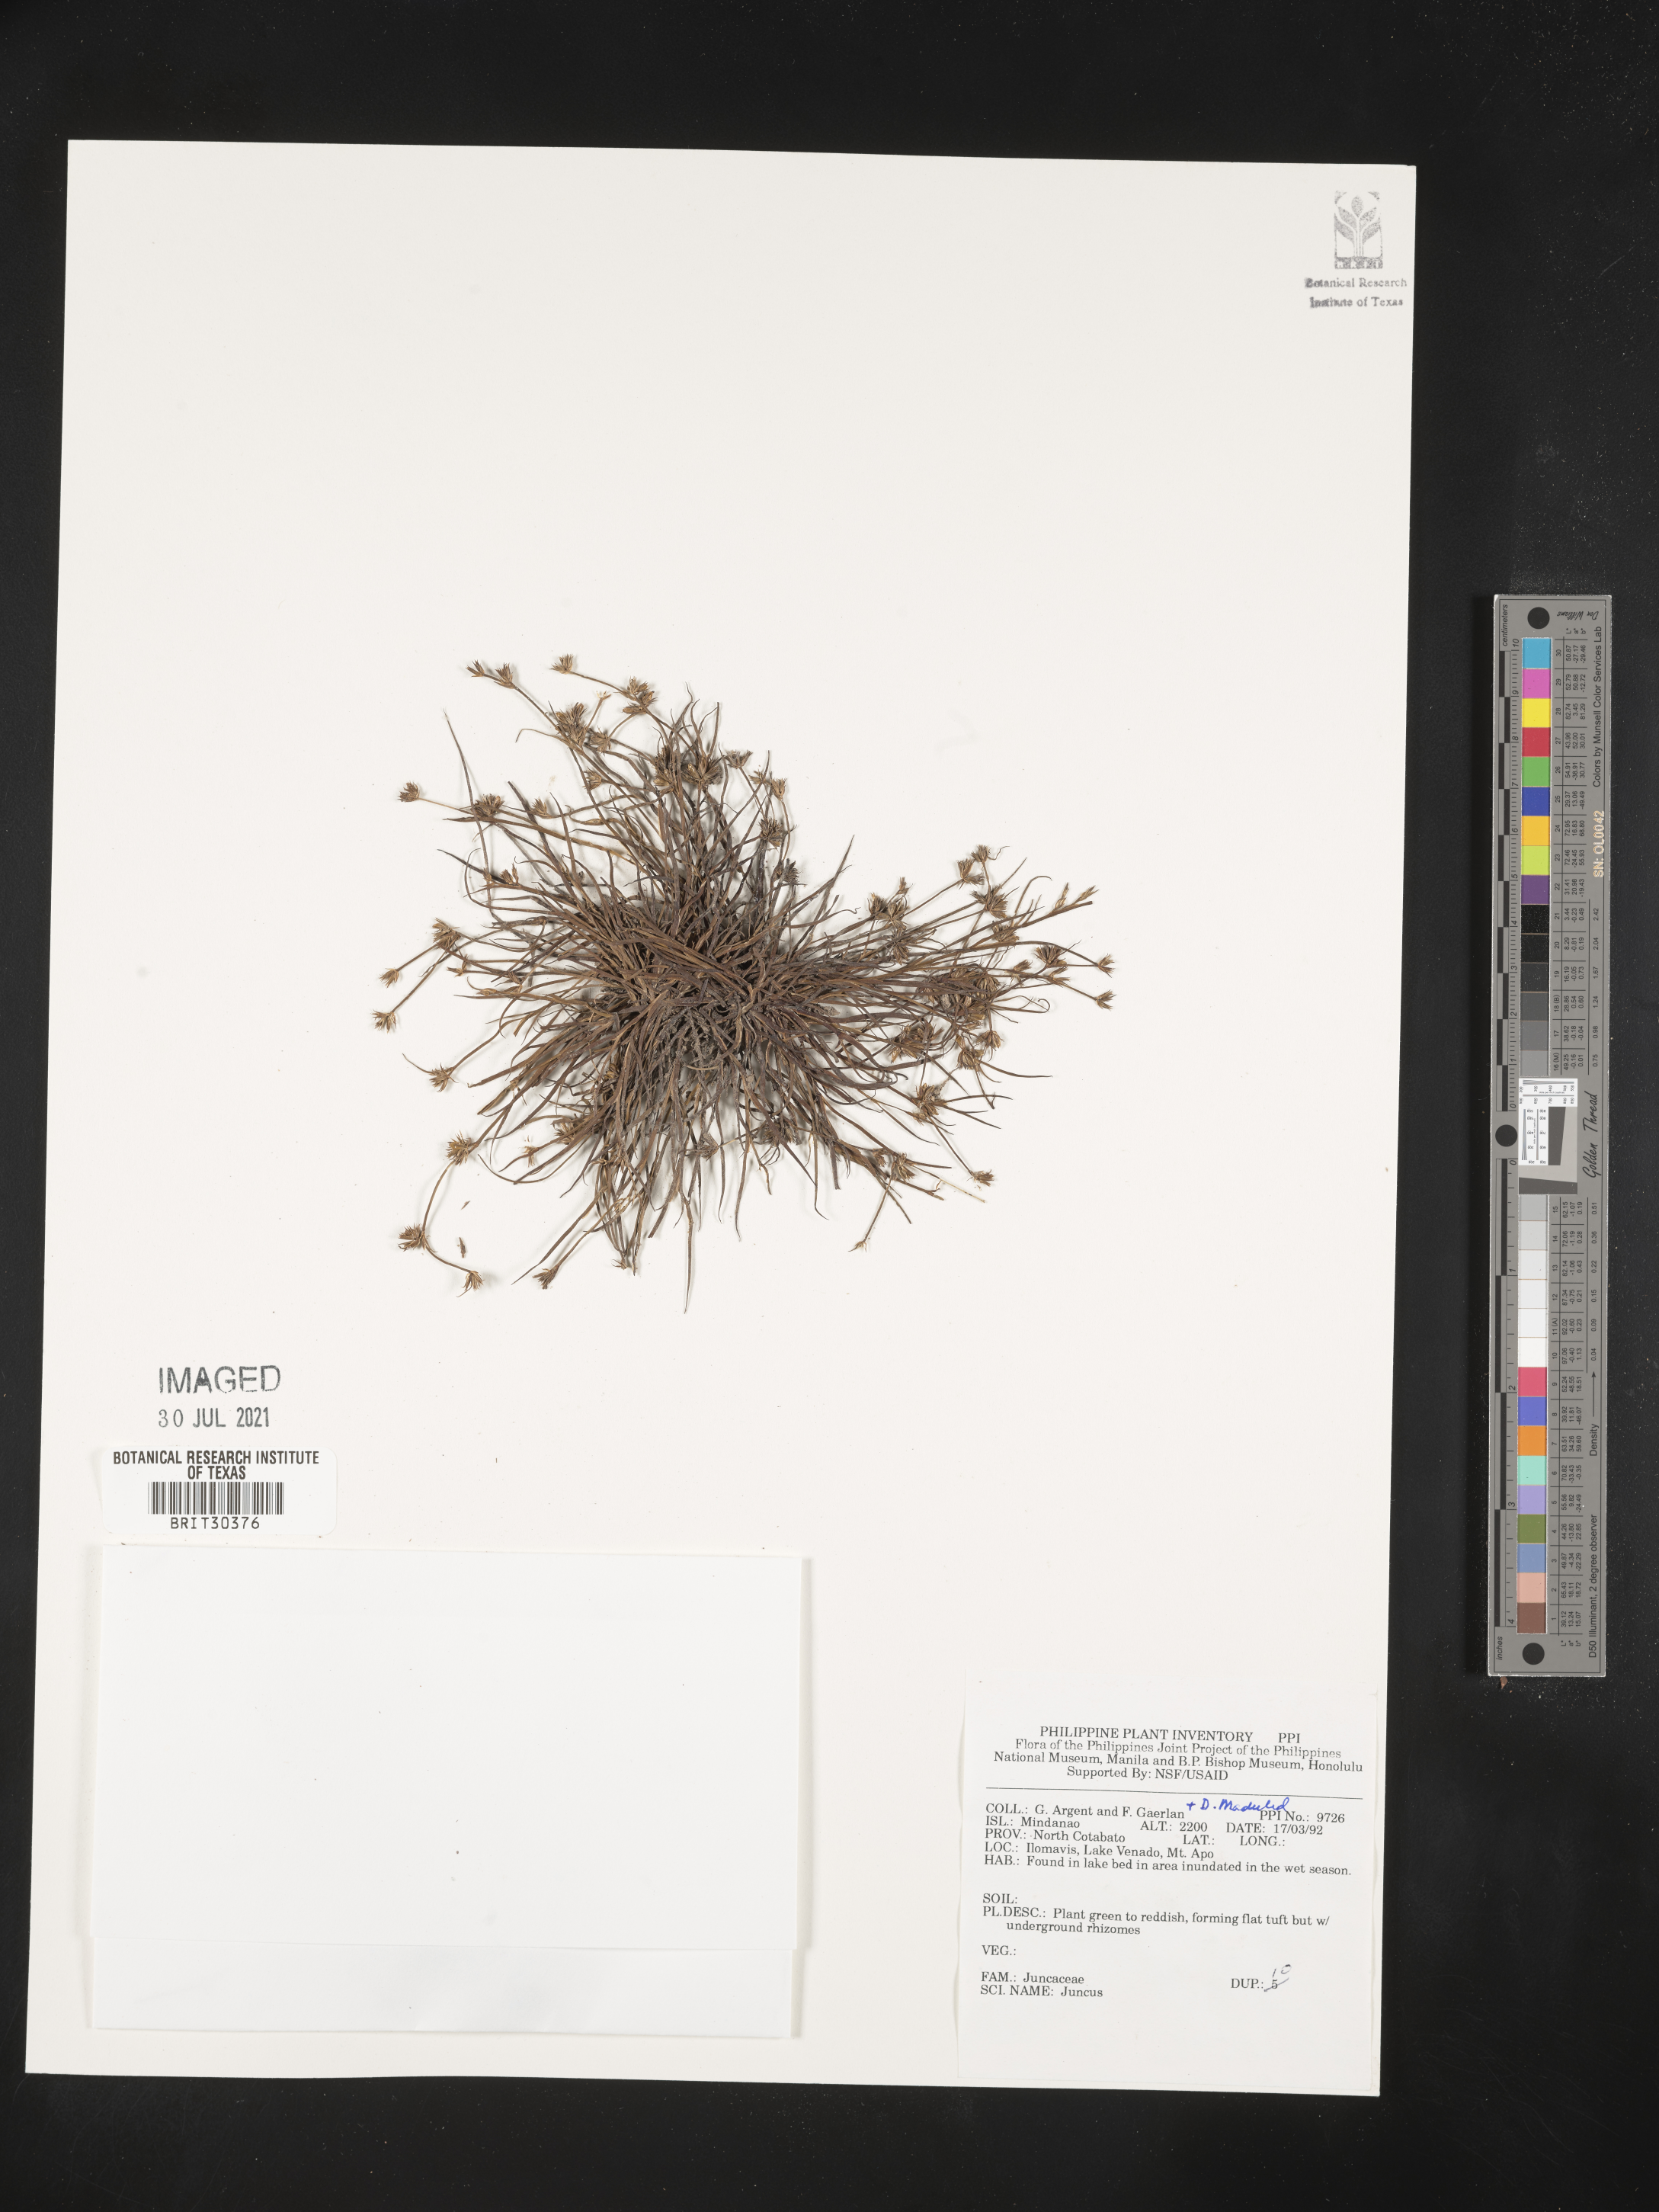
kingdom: Plantae
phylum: Tracheophyta
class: Liliopsida
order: Poales
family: Juncaceae
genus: Juncus
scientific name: Juncus
